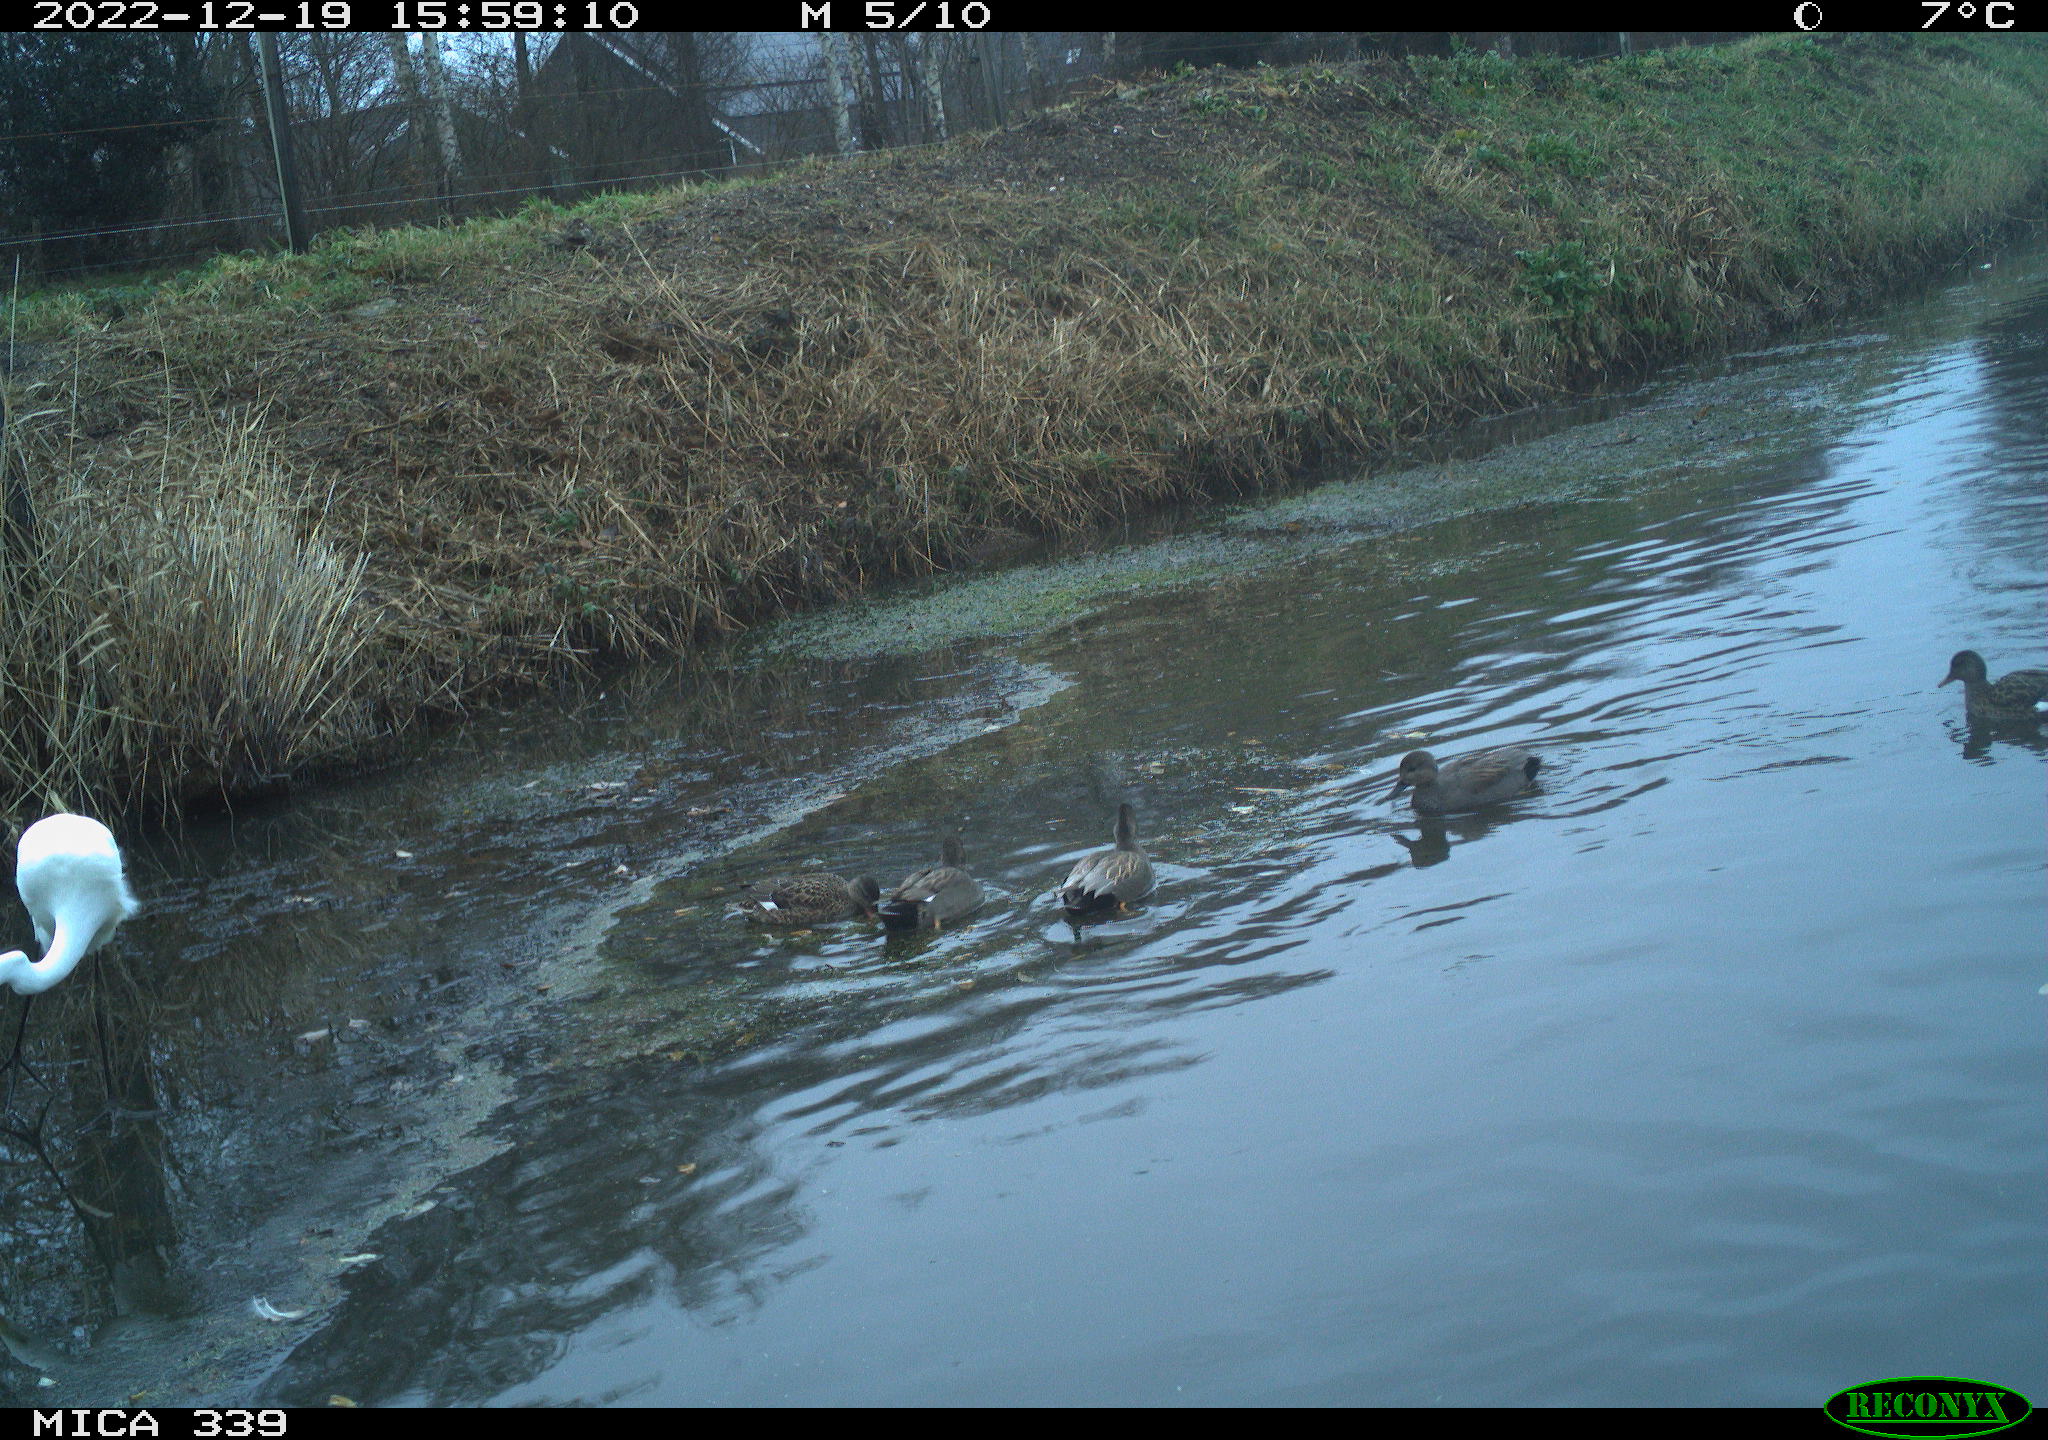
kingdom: Animalia
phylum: Chordata
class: Aves
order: Anseriformes
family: Anatidae
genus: Anas
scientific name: Anas
